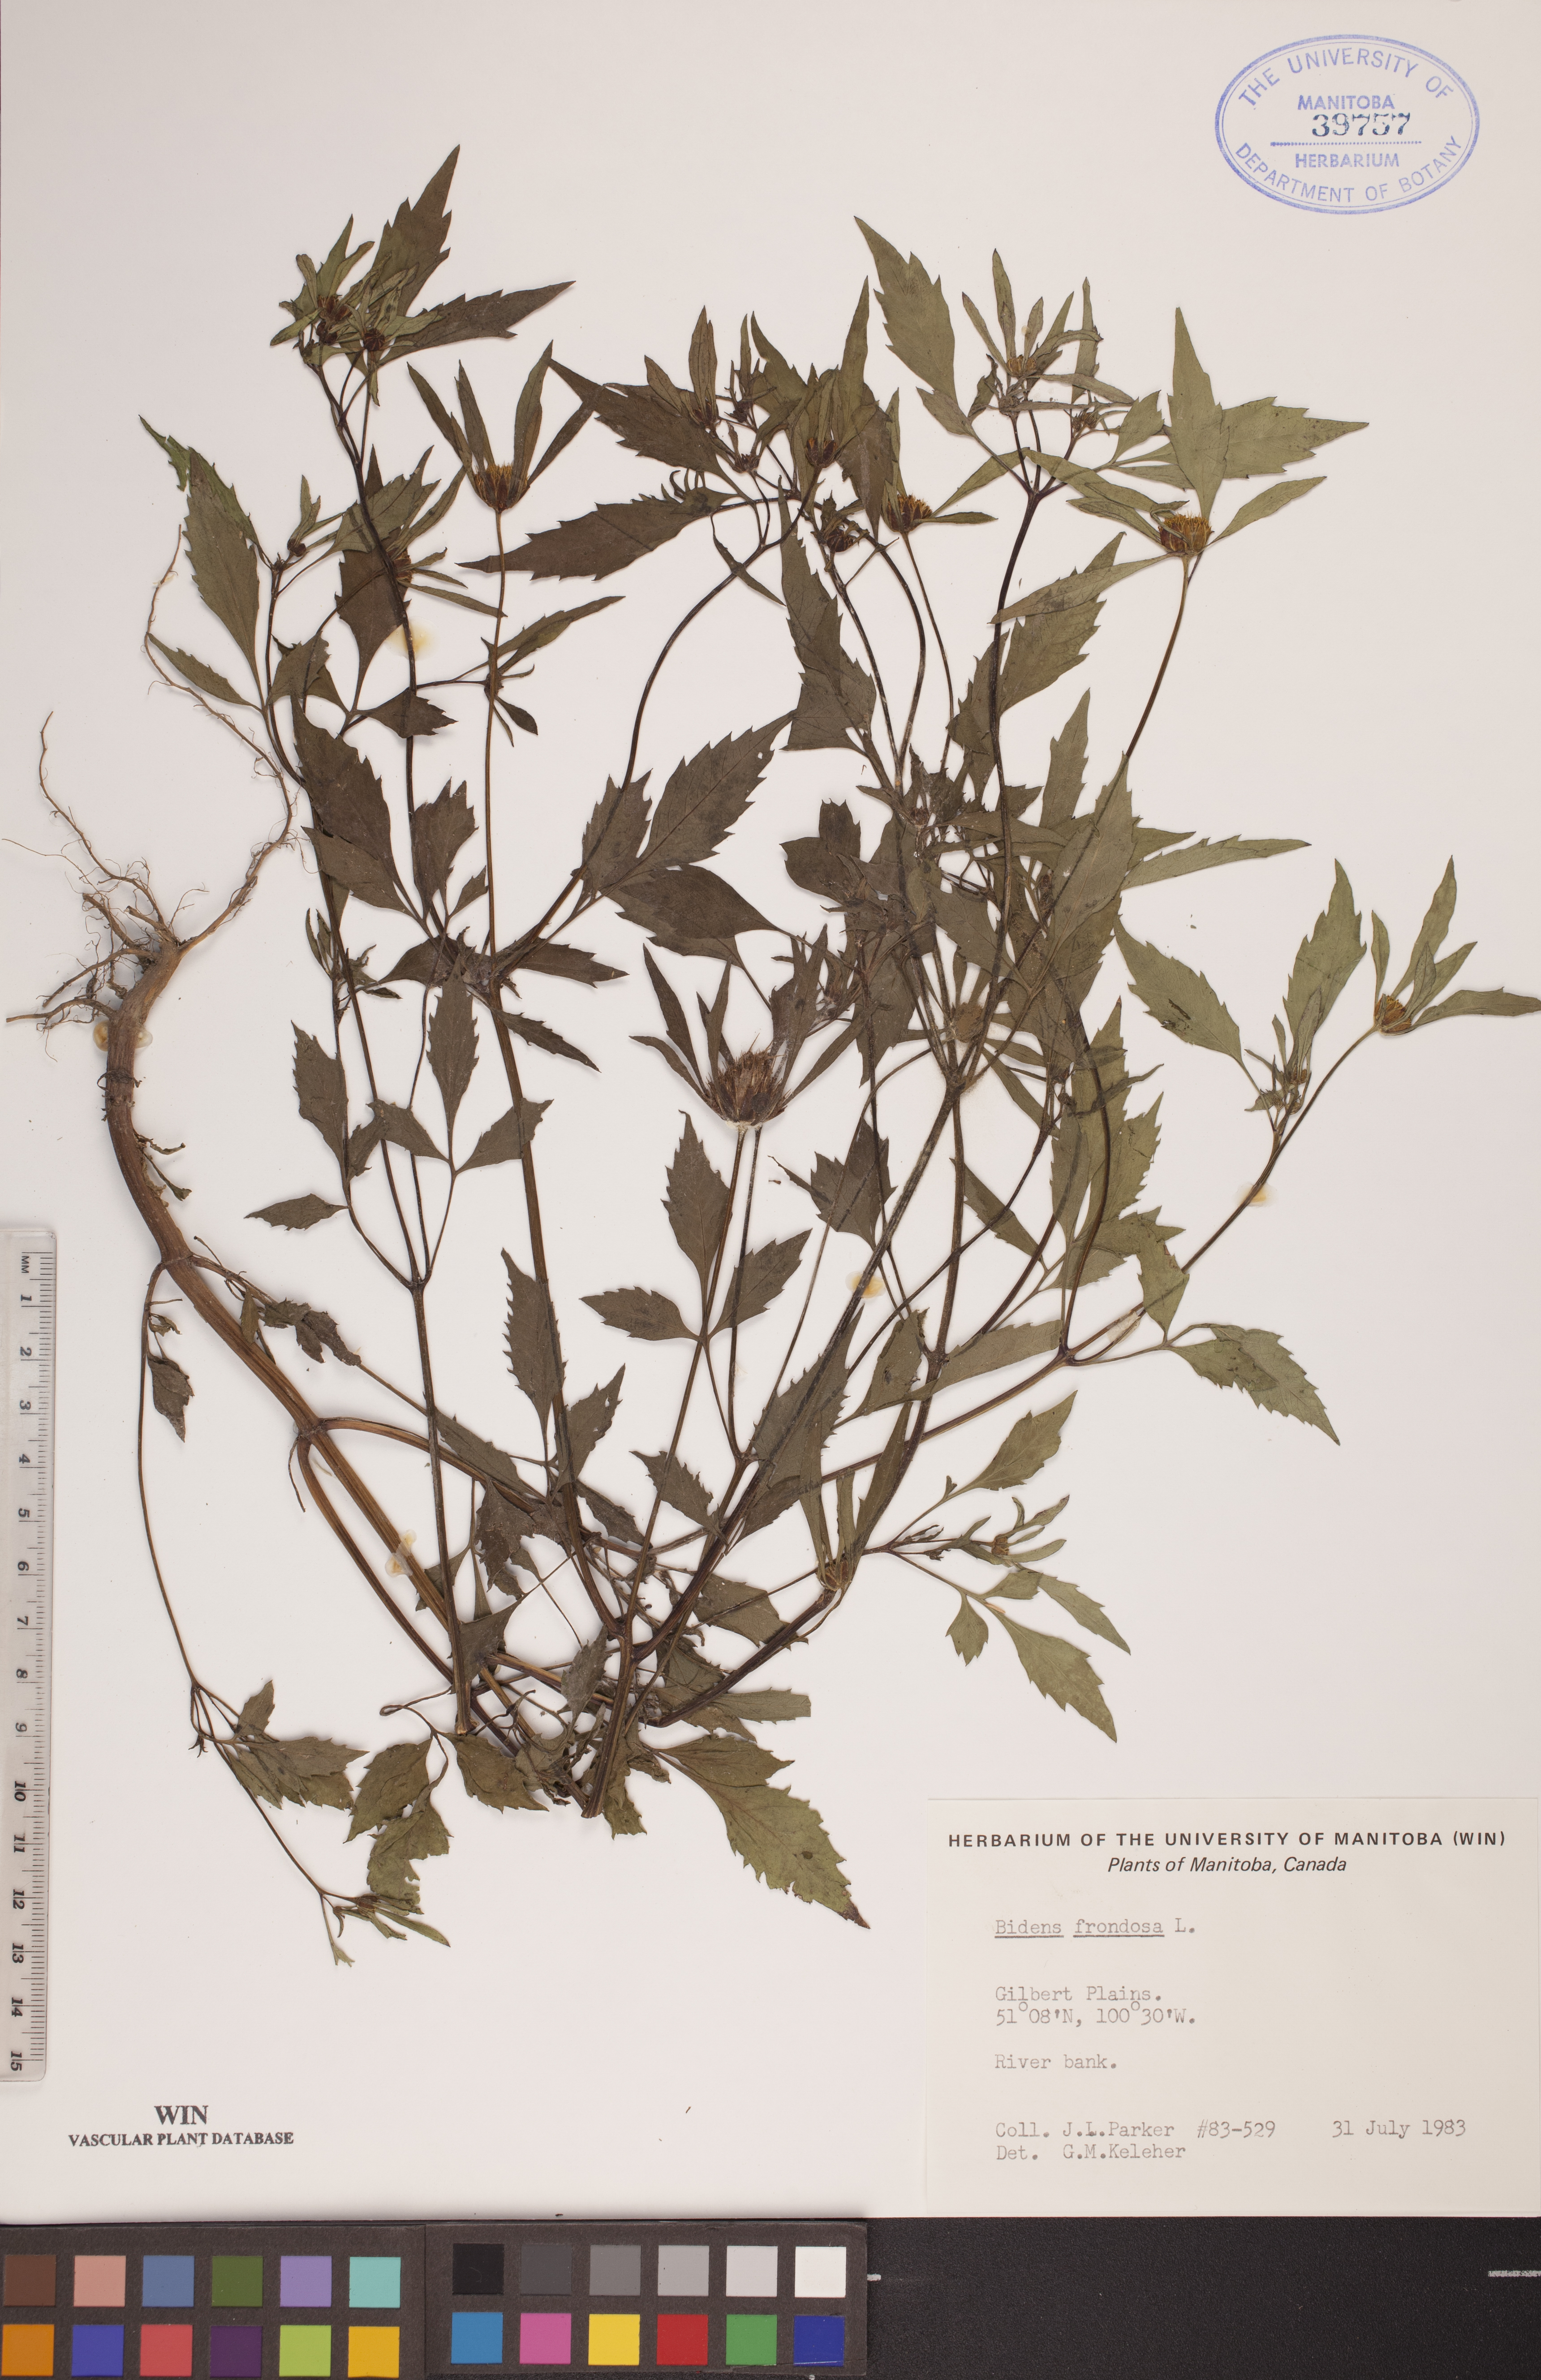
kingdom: Plantae
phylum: Tracheophyta
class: Magnoliopsida
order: Asterales
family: Asteraceae
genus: Bidens
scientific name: Bidens frondosa
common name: Beggarticks
